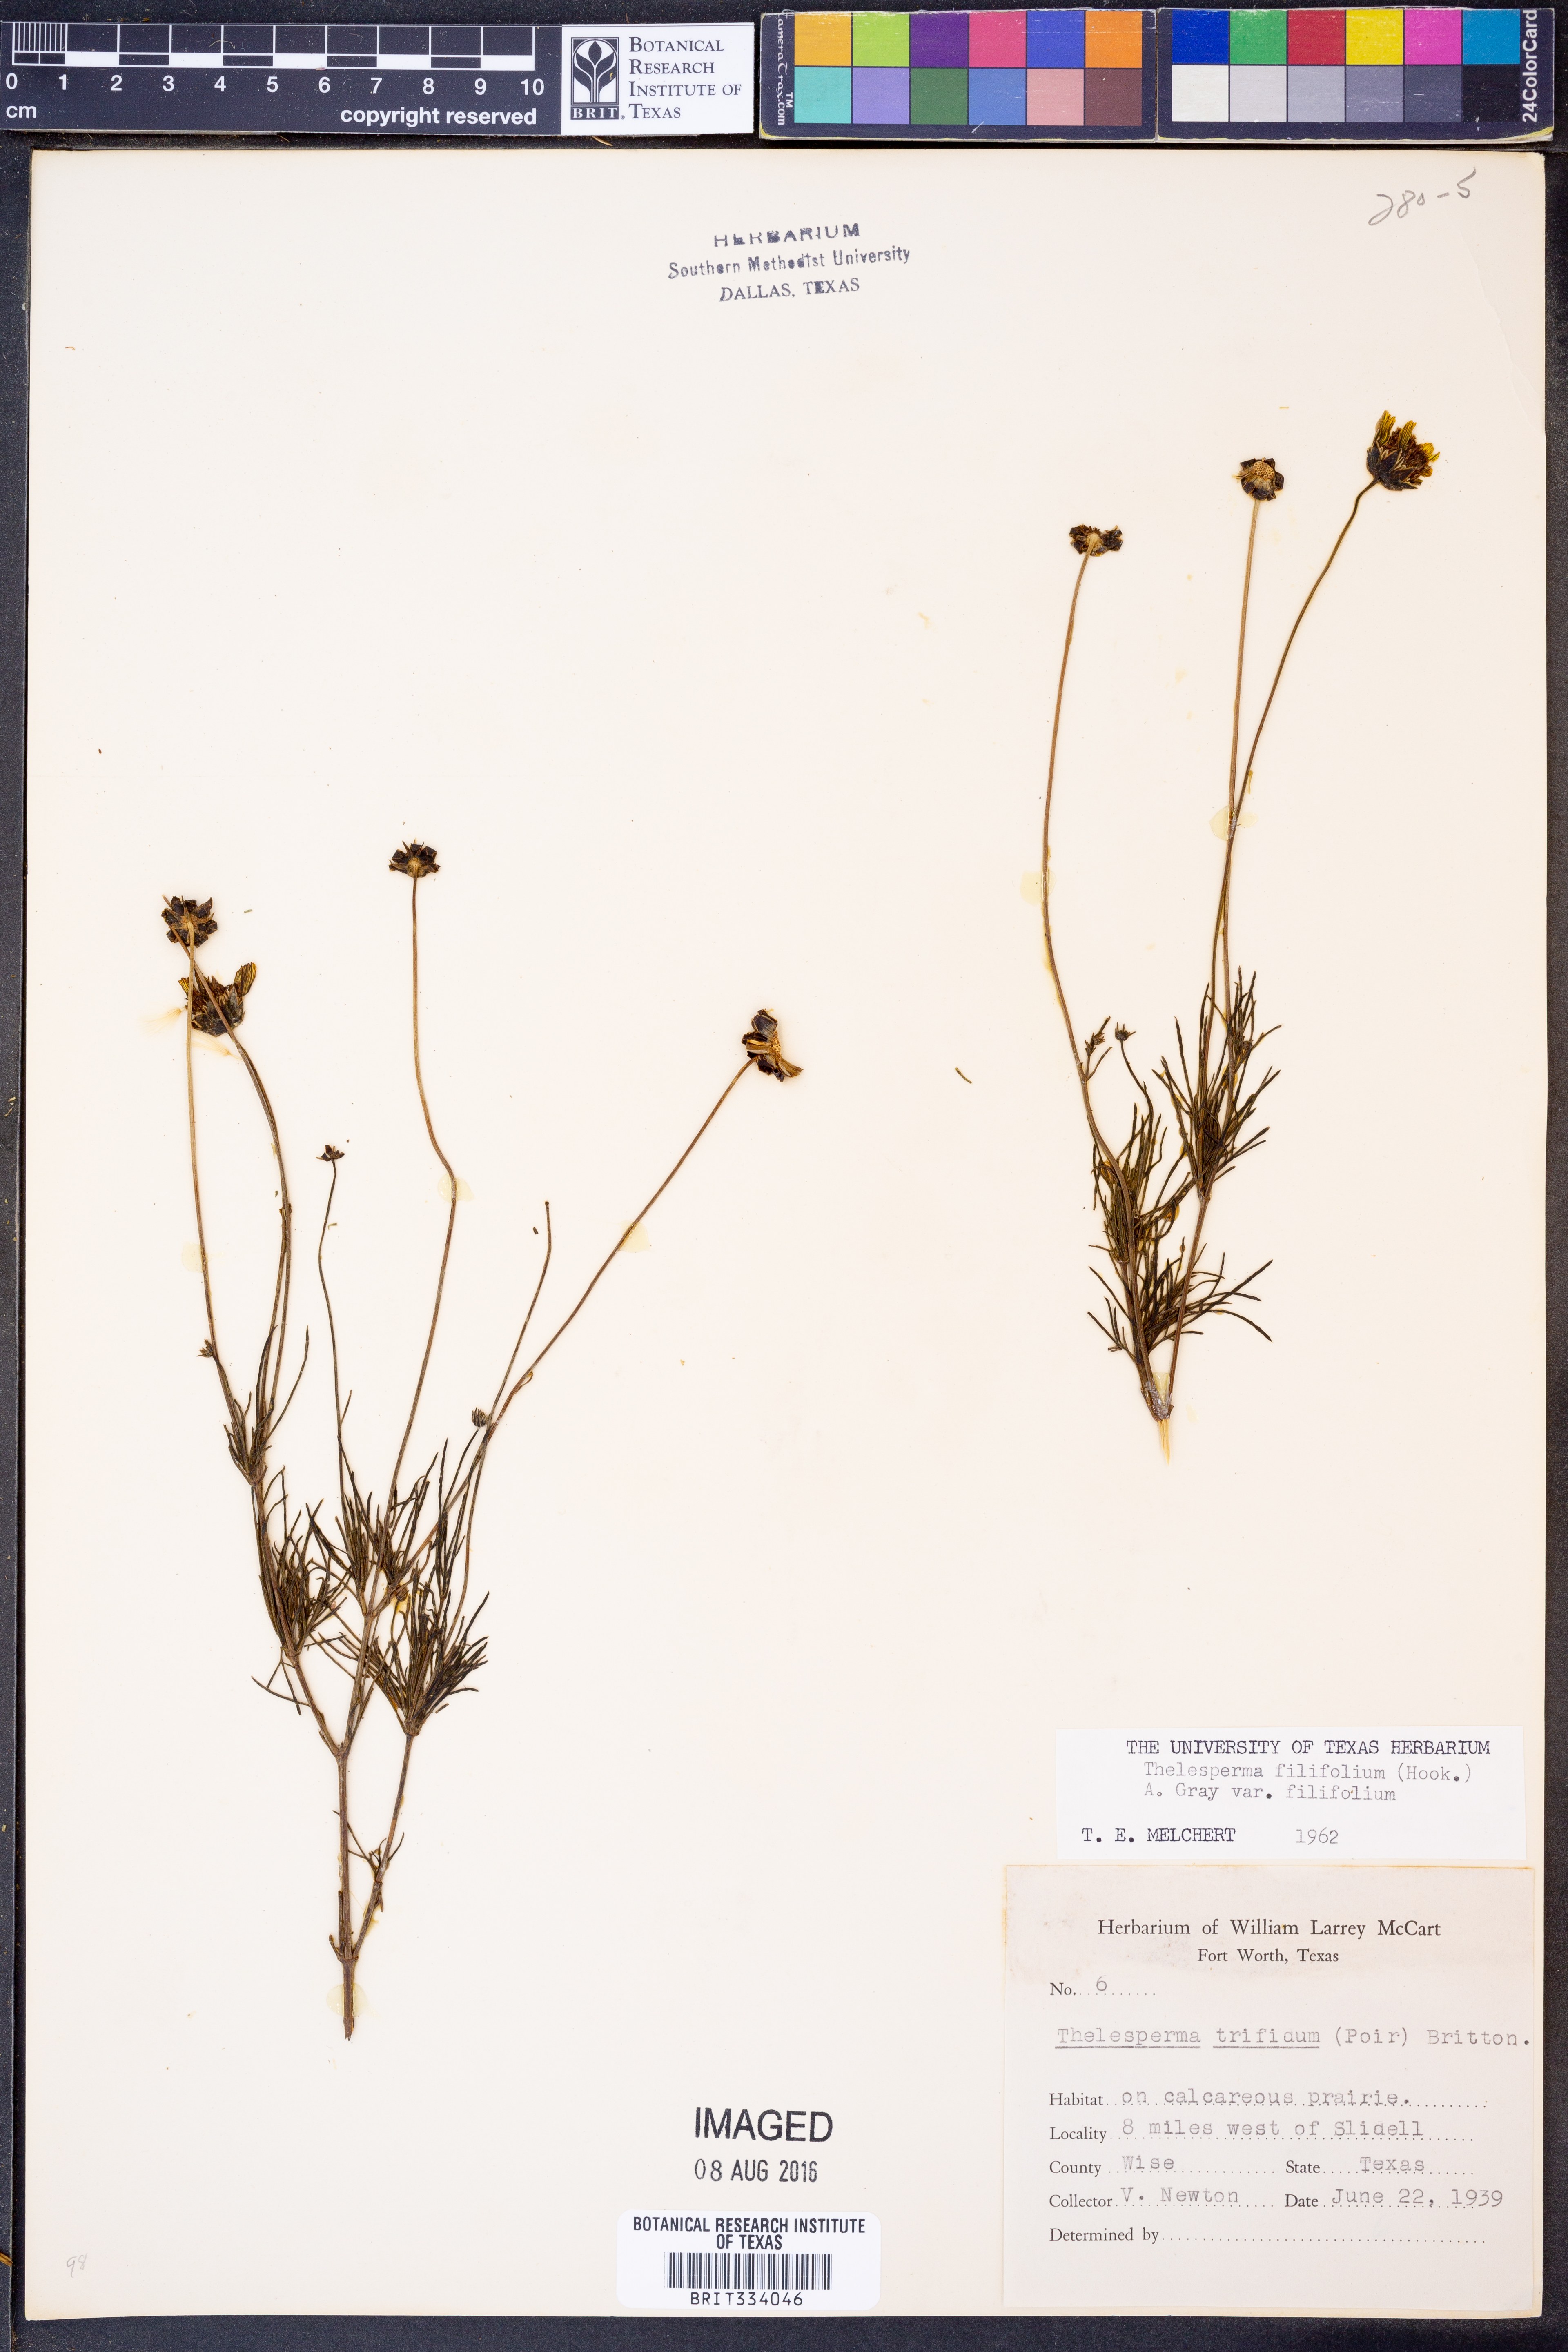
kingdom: Plantae
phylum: Tracheophyta
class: Magnoliopsida
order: Asterales
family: Asteraceae
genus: Thelesperma
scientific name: Thelesperma filifolium
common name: Stiff greenthread
